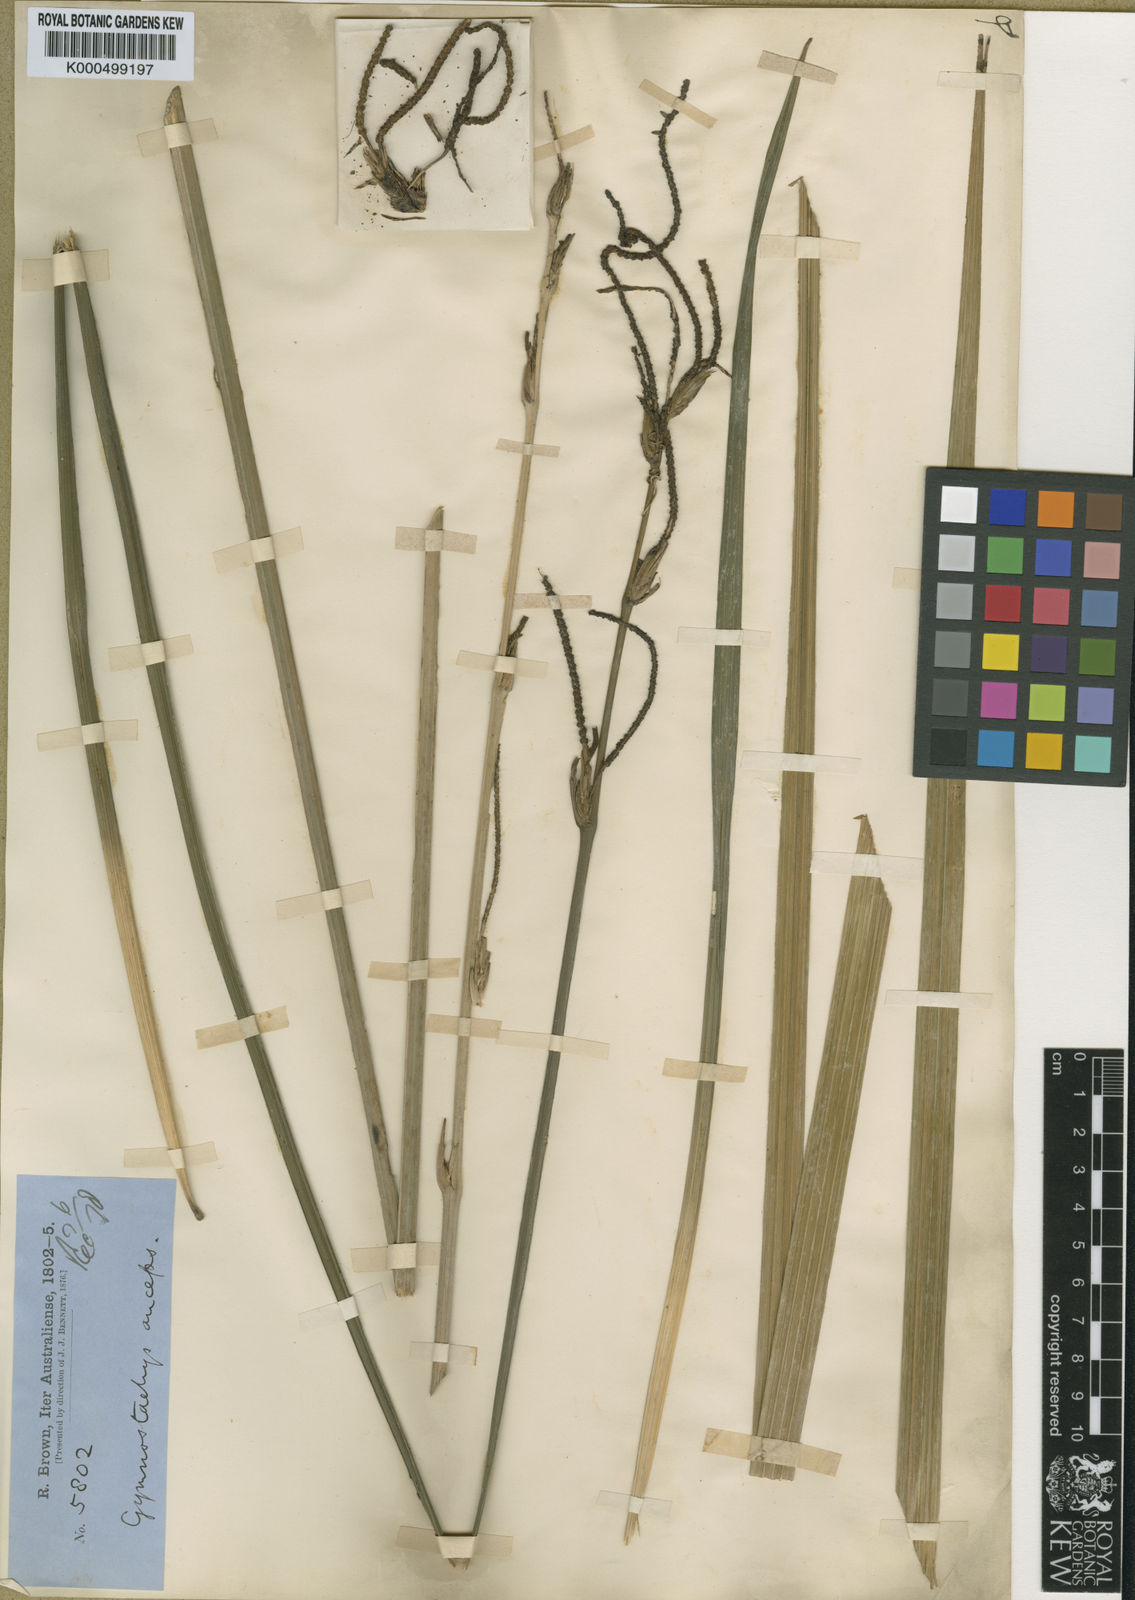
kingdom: Plantae
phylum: Tracheophyta
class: Liliopsida
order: Alismatales
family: Araceae
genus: Gymnostachys
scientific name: Gymnostachys anceps
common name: Settler's-flax
